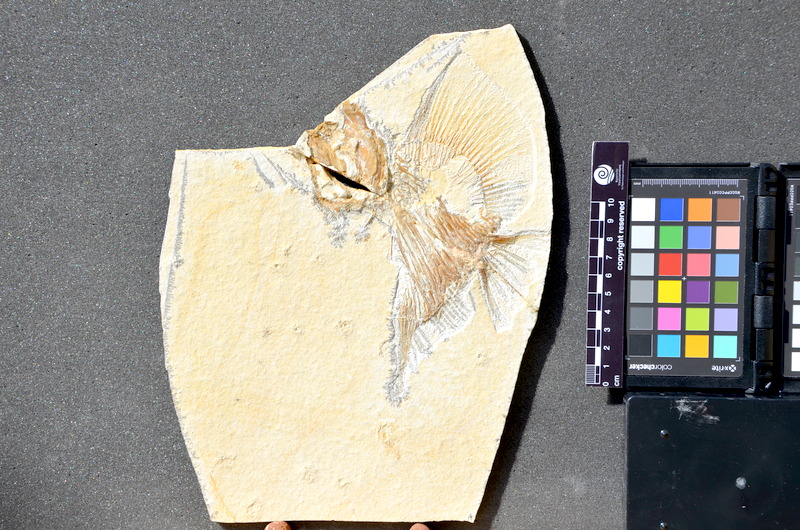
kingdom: Animalia
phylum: Chordata
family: Pycnodontes
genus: Macromesodon
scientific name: Macromesodon
